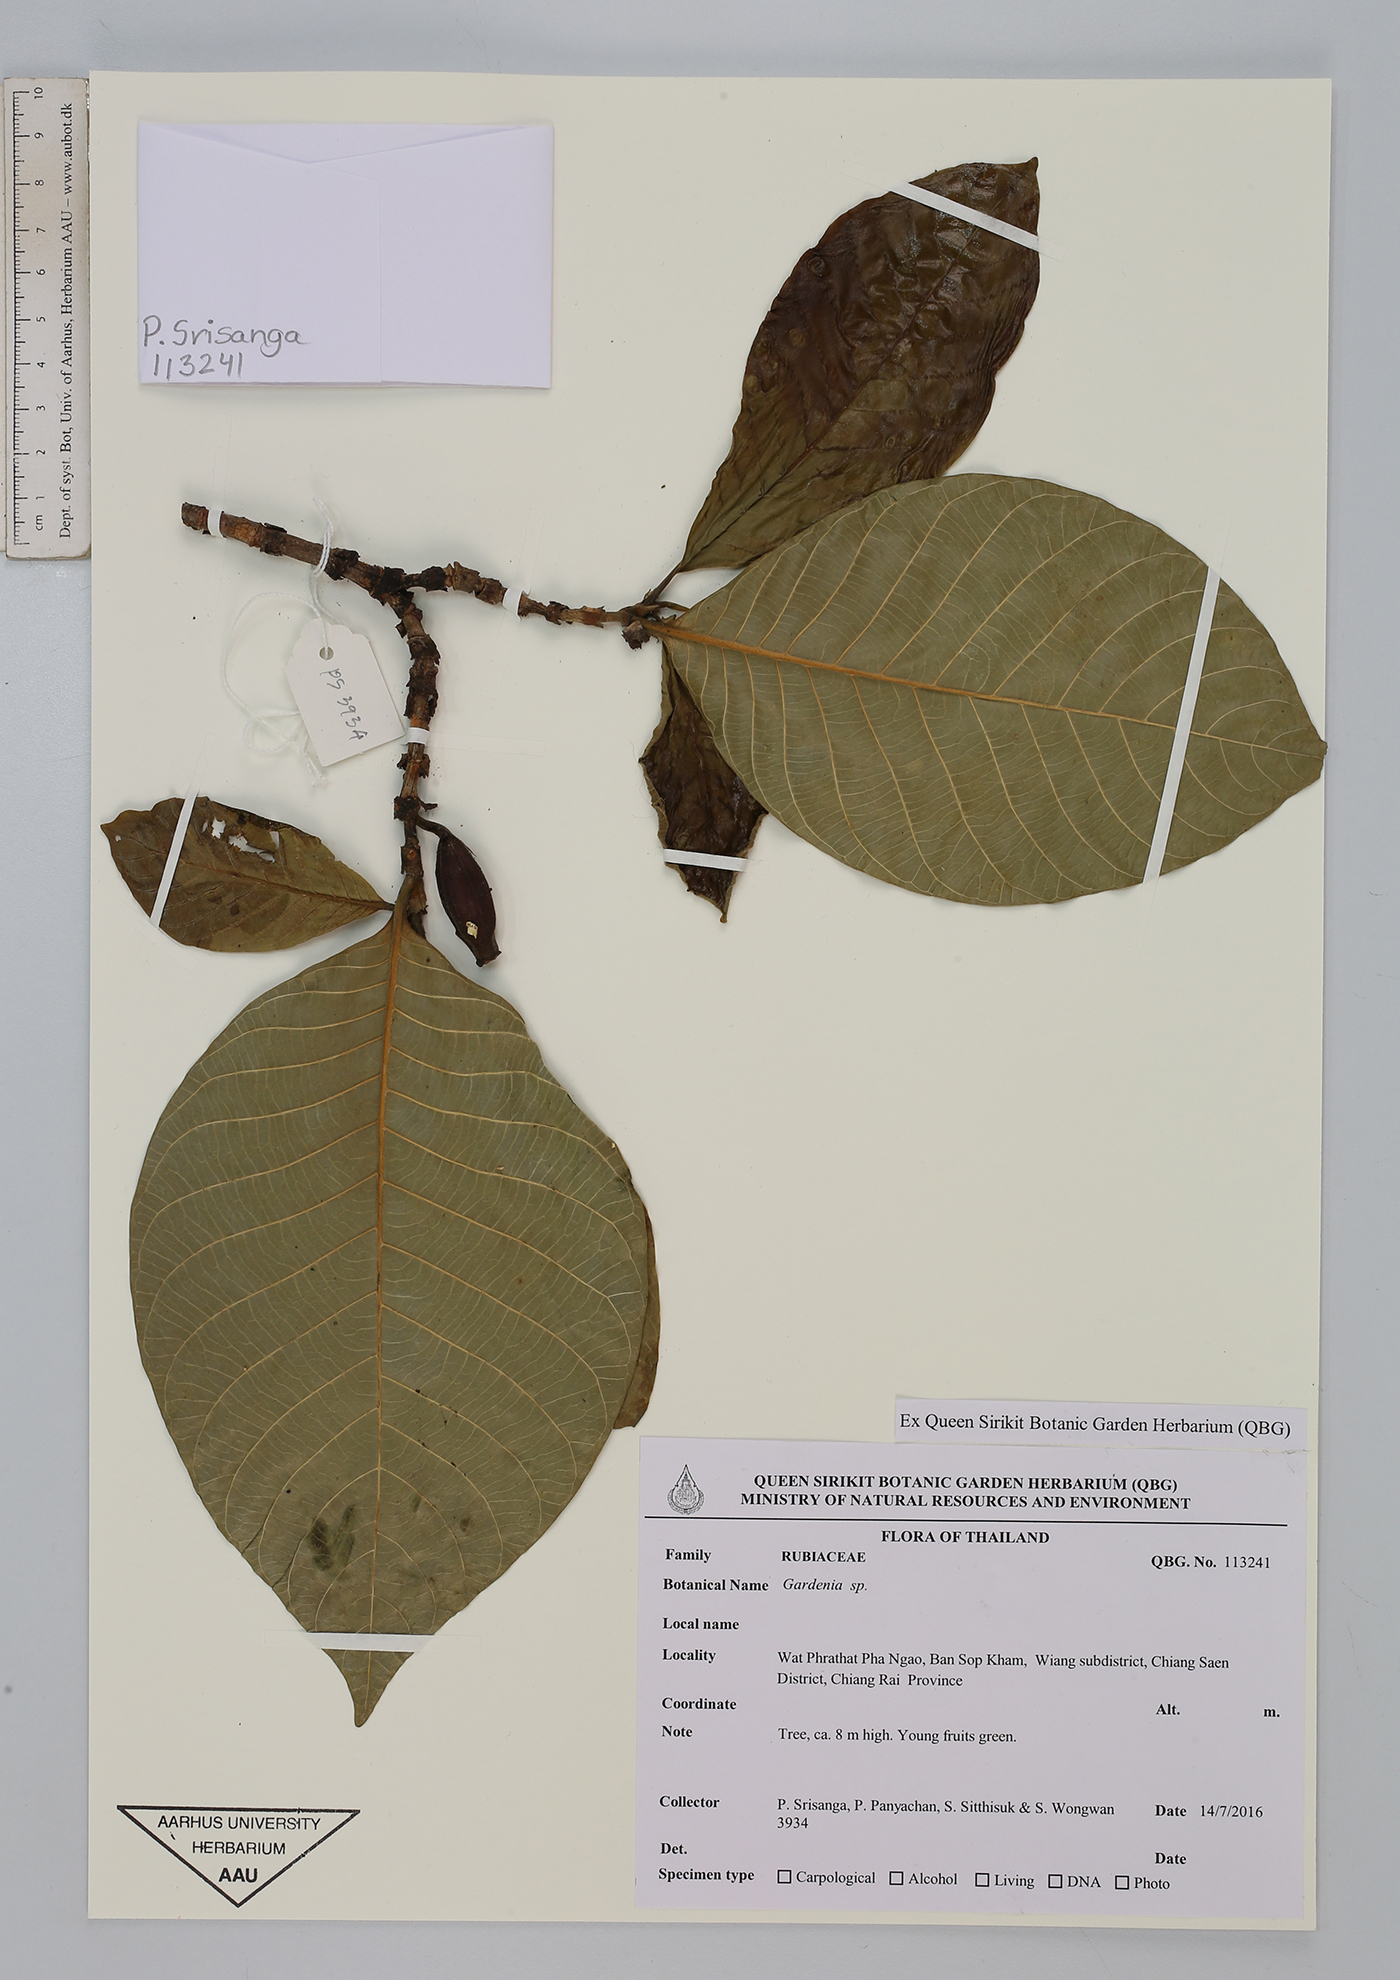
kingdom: Plantae
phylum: Tracheophyta
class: Magnoliopsida
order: Gentianales
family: Rubiaceae
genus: Gardenia
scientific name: Gardenia
